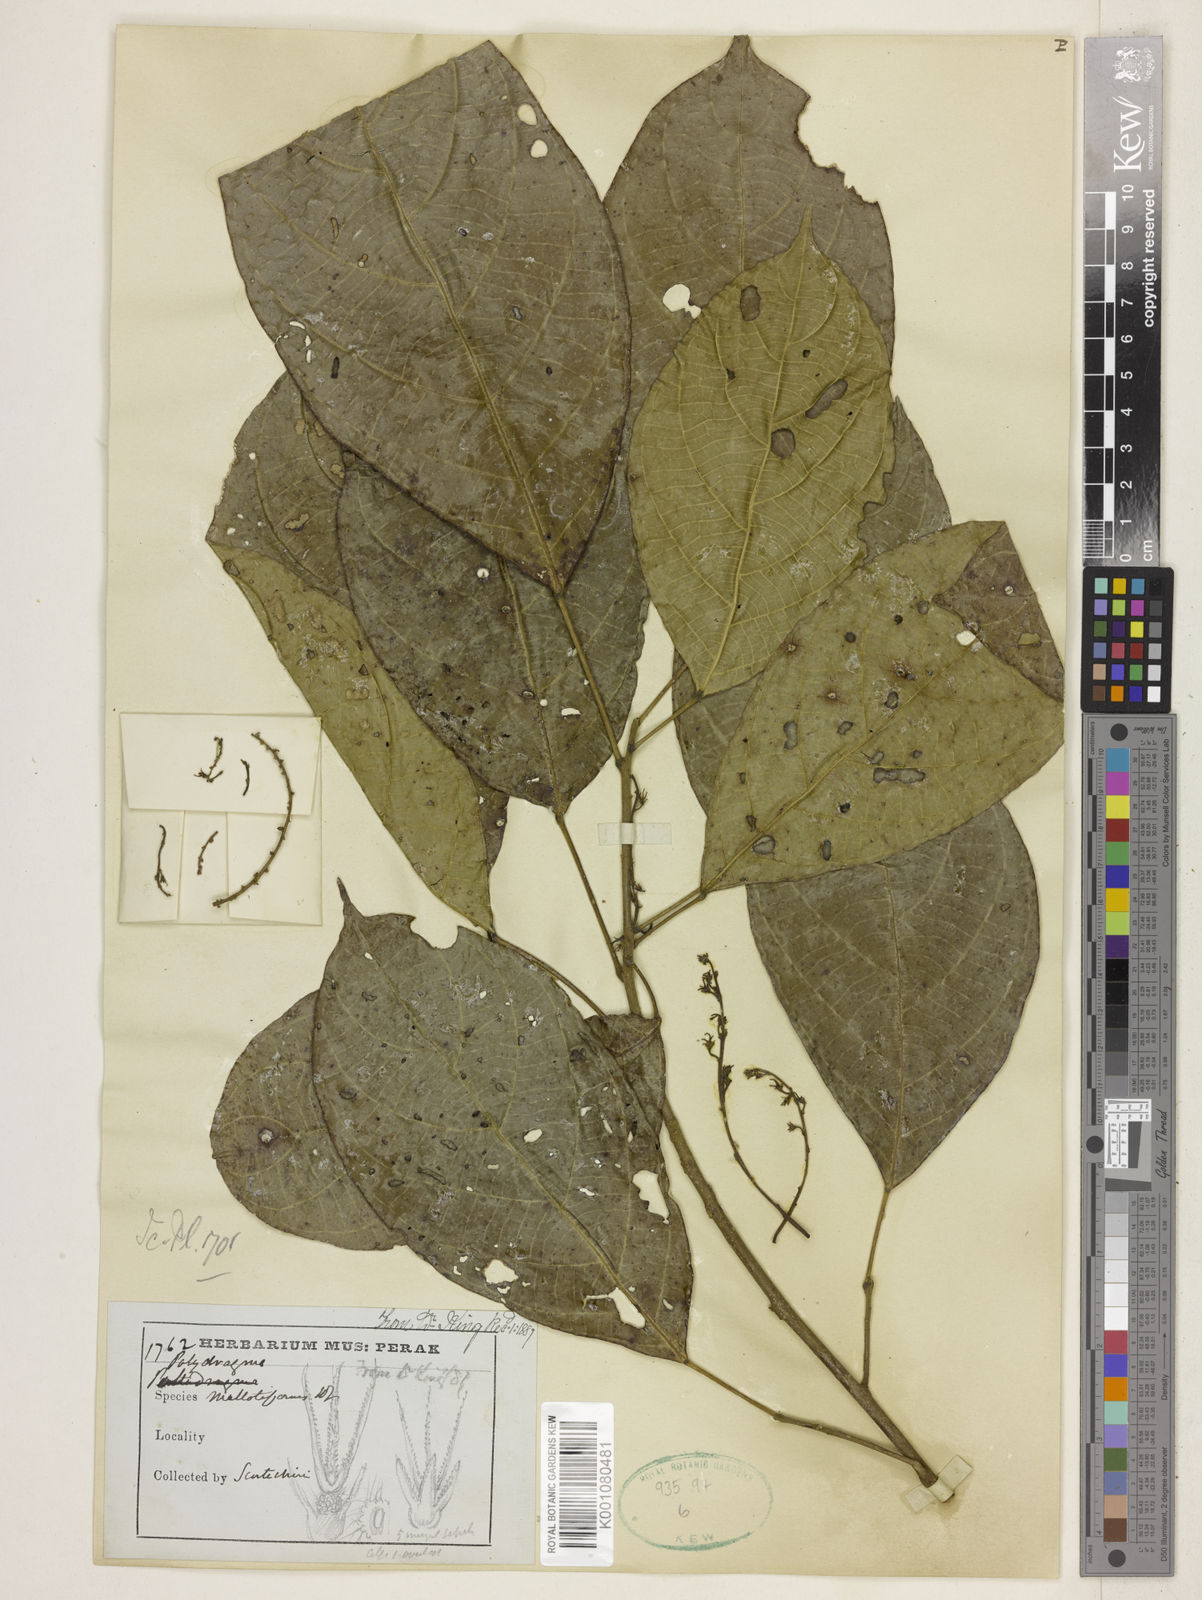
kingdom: Plantae
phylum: Tracheophyta
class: Magnoliopsida
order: Malpighiales
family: Euphorbiaceae
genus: Spathiostemon
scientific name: Spathiostemon javensis
